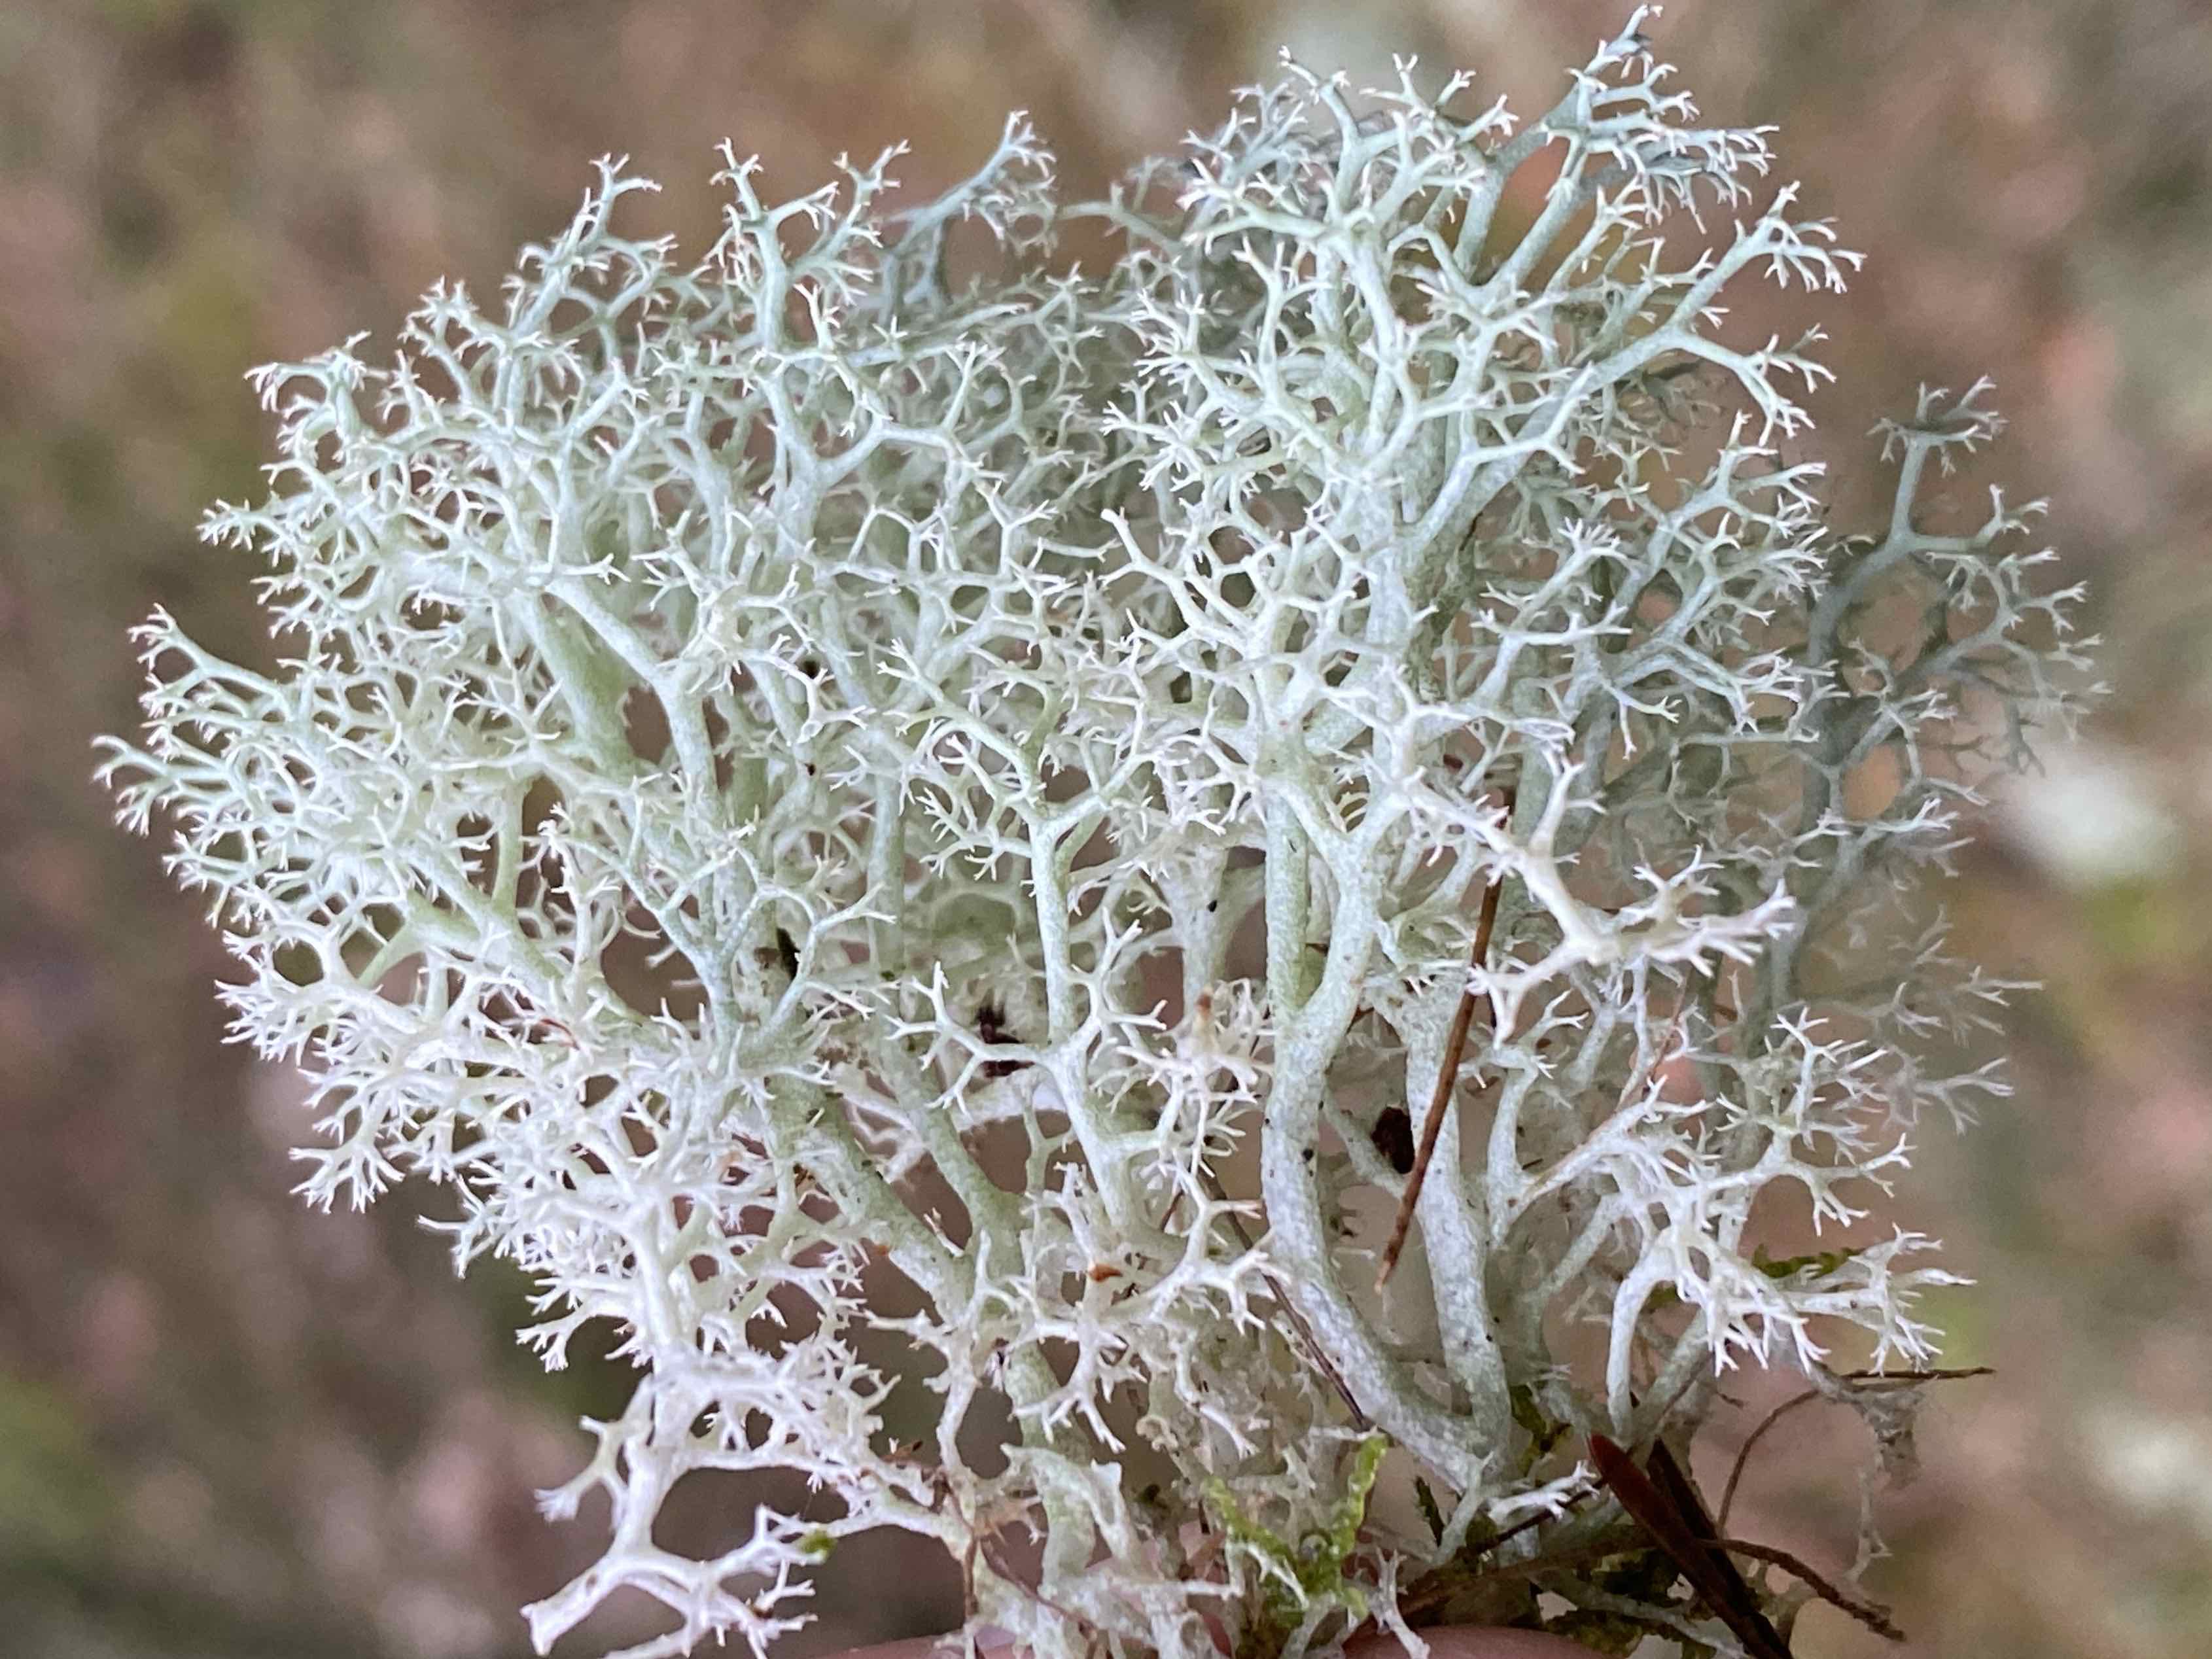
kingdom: Fungi
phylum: Ascomycota
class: Lecanoromycetes
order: Lecanorales
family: Cladoniaceae
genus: Cladonia
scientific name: Cladonia portentosa
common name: hede-rensdyrlav
